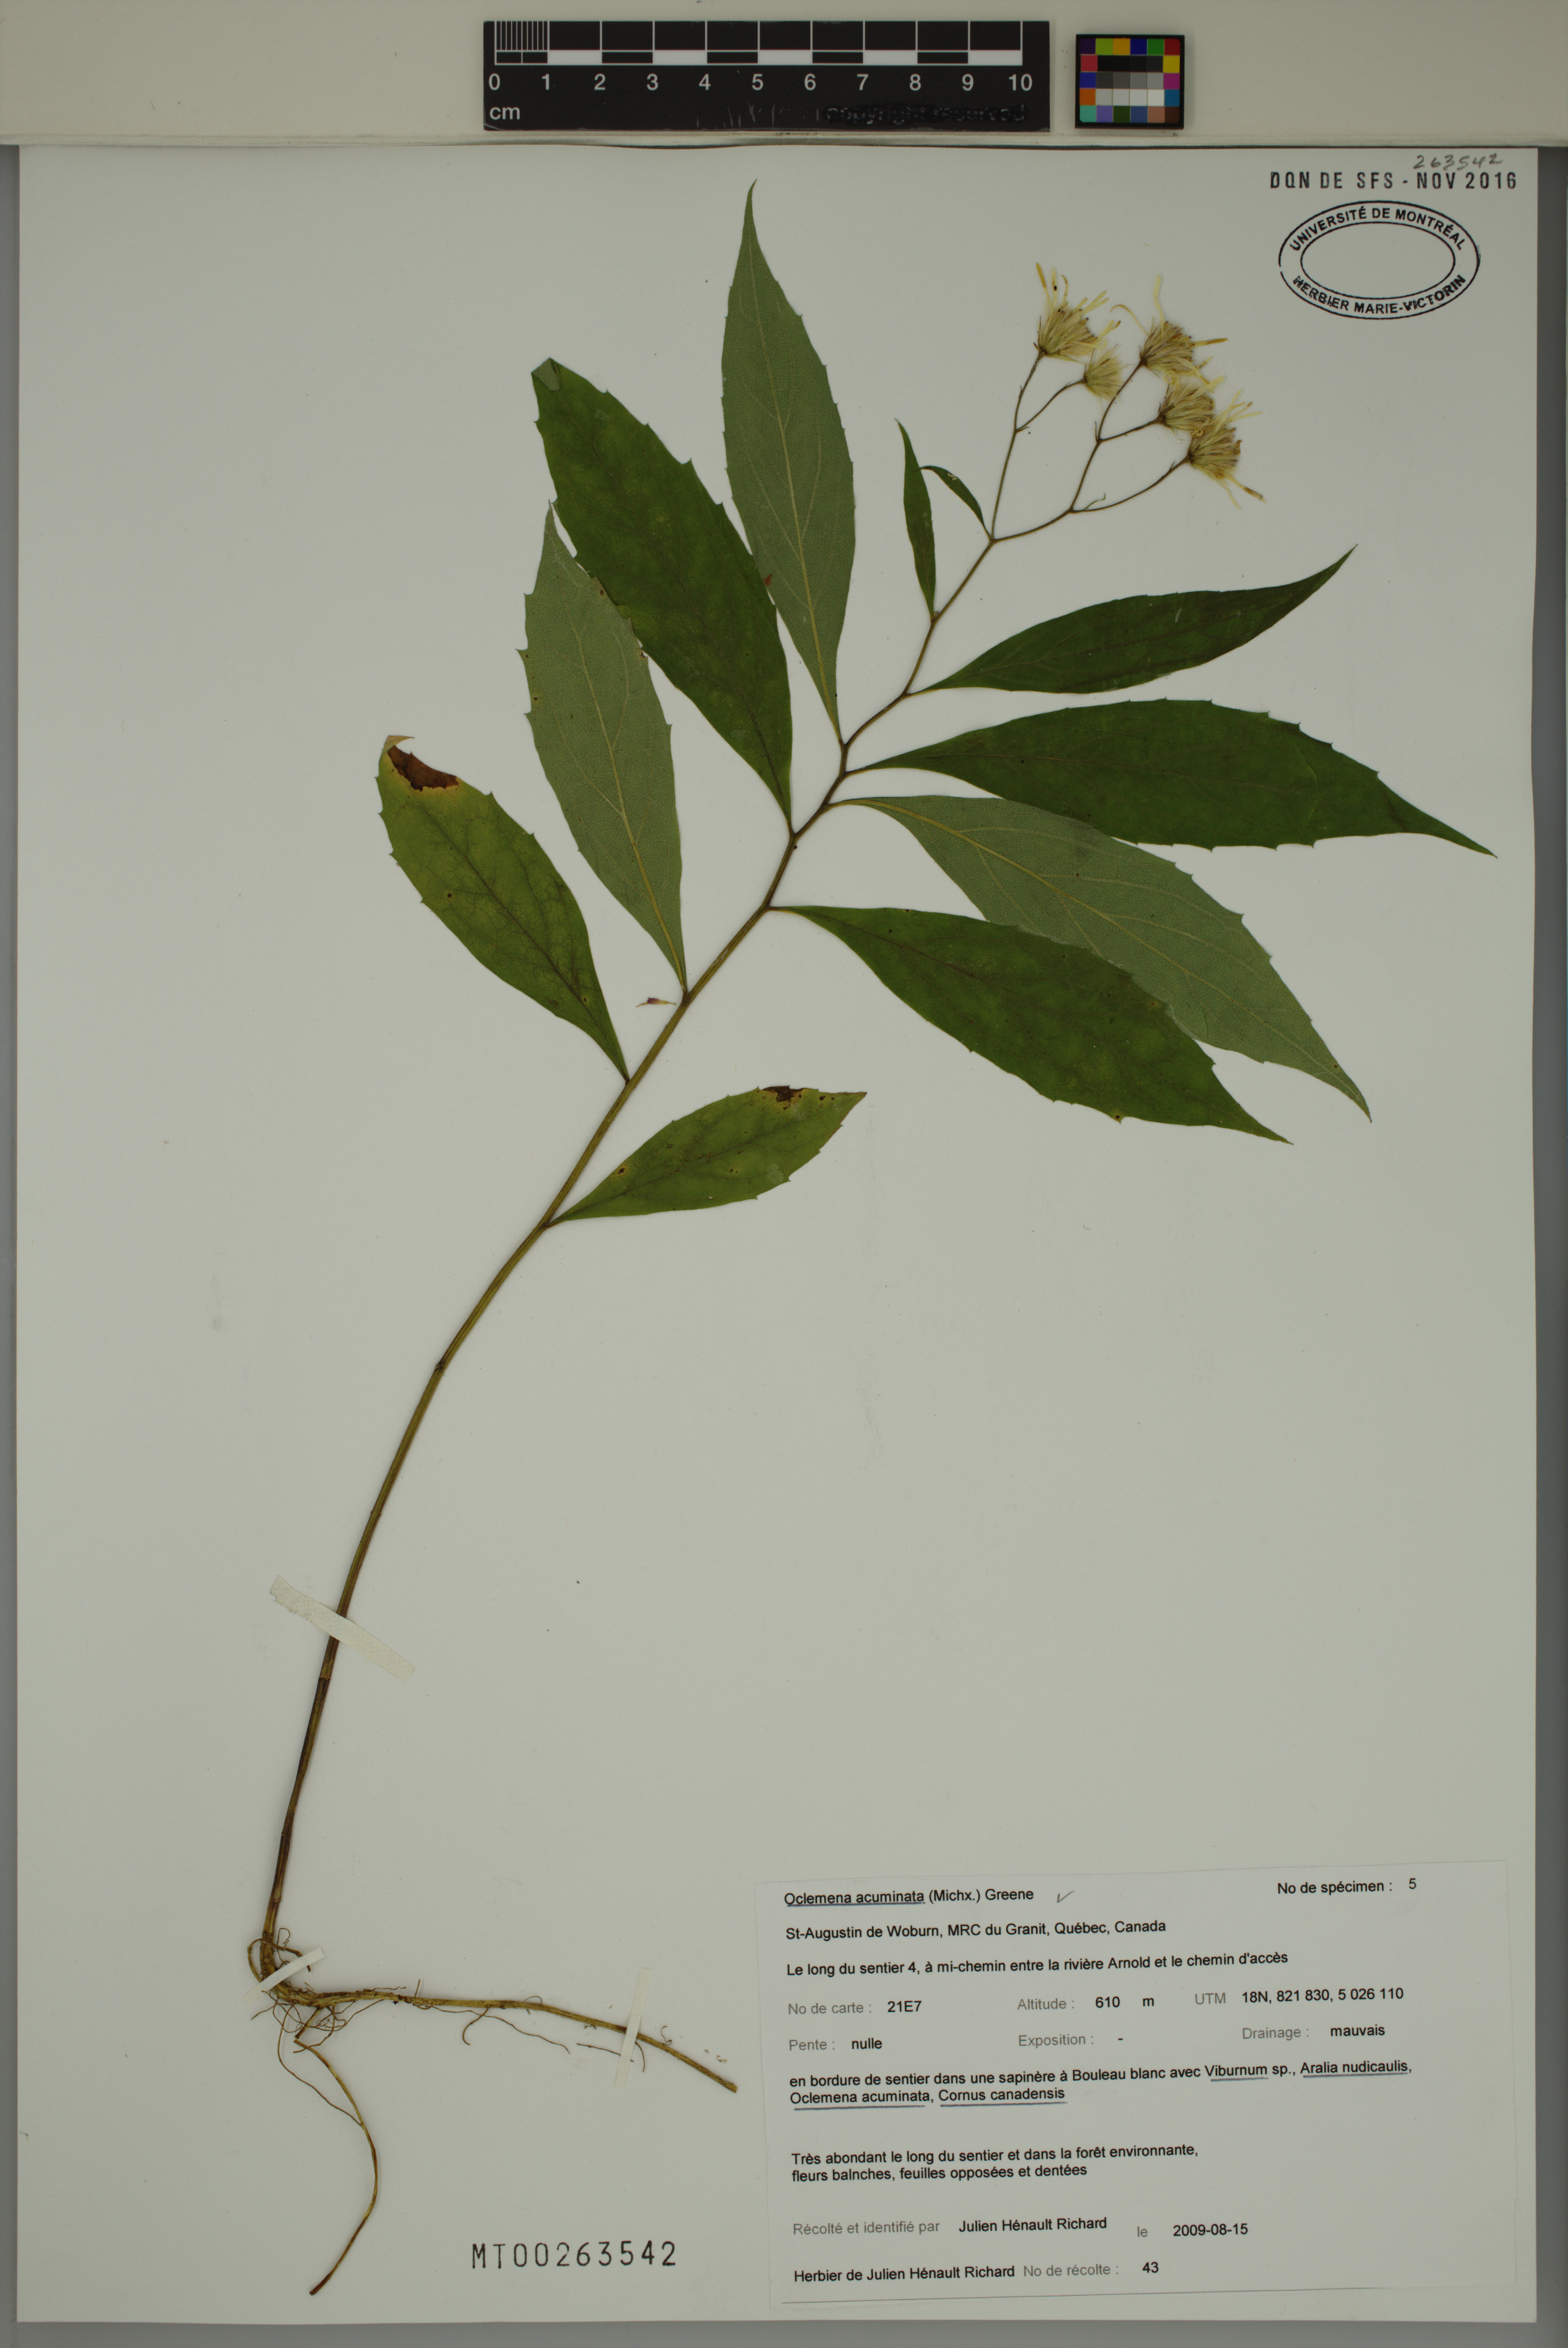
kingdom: Plantae
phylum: Tracheophyta
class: Magnoliopsida
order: Asterales
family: Asteraceae
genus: Oclemena
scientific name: Oclemena acuminata
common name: Mountain aster
